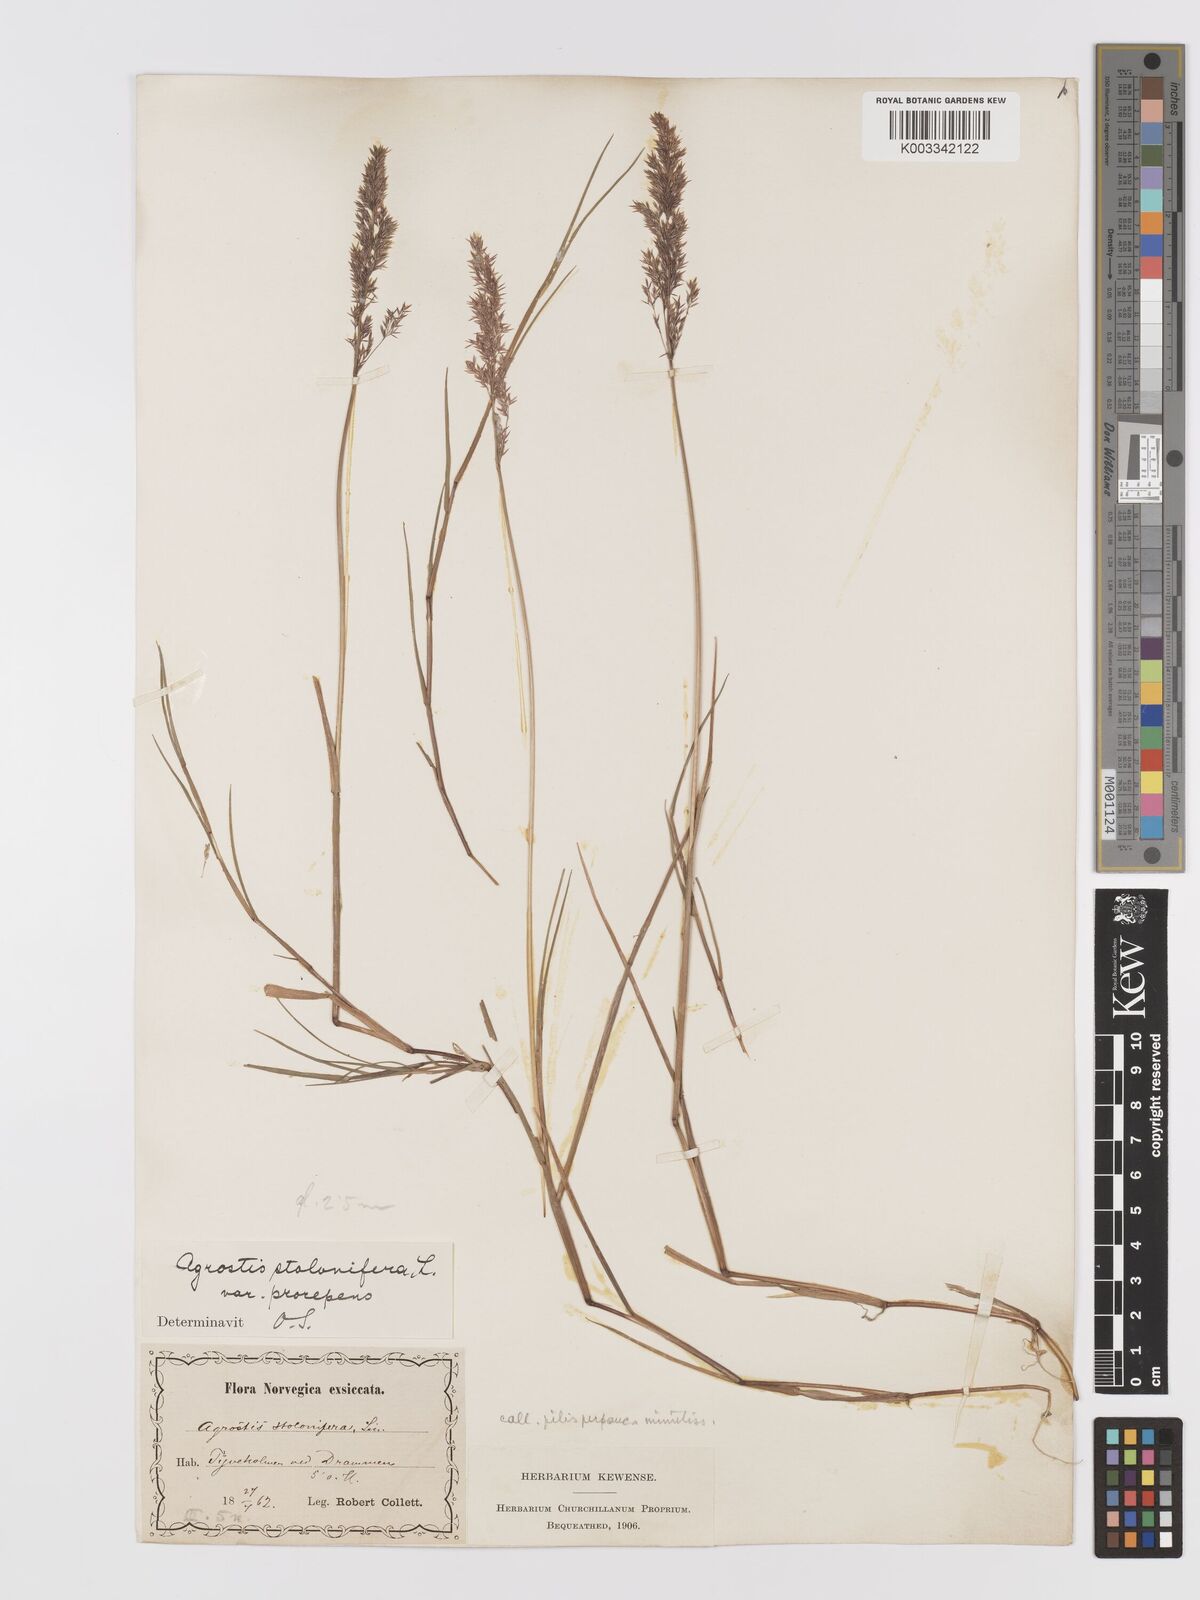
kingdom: Plantae
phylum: Tracheophyta
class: Liliopsida
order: Poales
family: Poaceae
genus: Agrostis
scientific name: Agrostis stolonifera
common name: Creeping bentgrass
